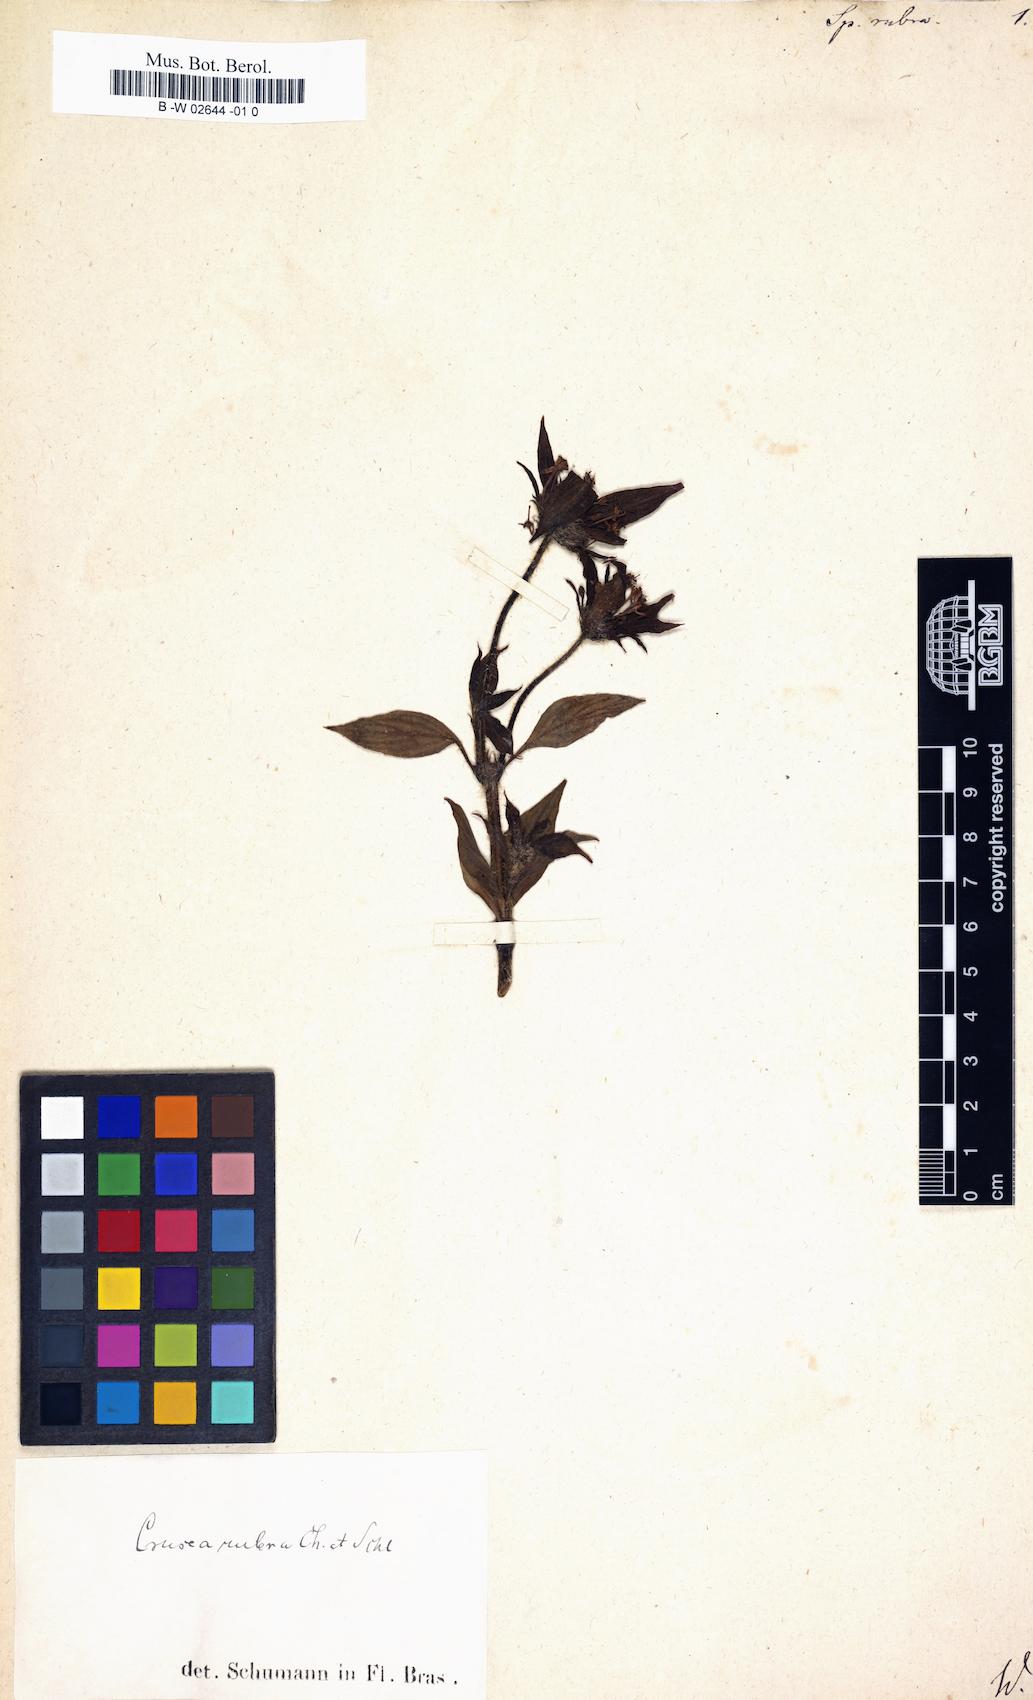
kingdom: Plantae
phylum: Tracheophyta
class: Magnoliopsida
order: Gentianales
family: Rubiaceae
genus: Crusea
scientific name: Crusea hispida
